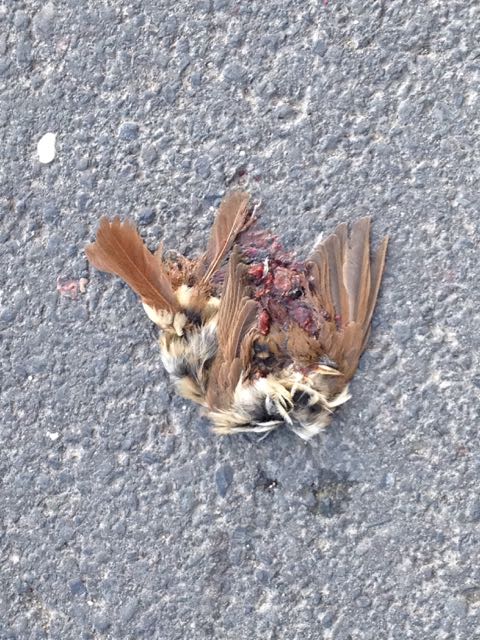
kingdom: Animalia
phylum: Chordata
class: Aves
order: Passeriformes
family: Passeridae
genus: Passer
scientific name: Passer montanus
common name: Eurasian tree sparrow
